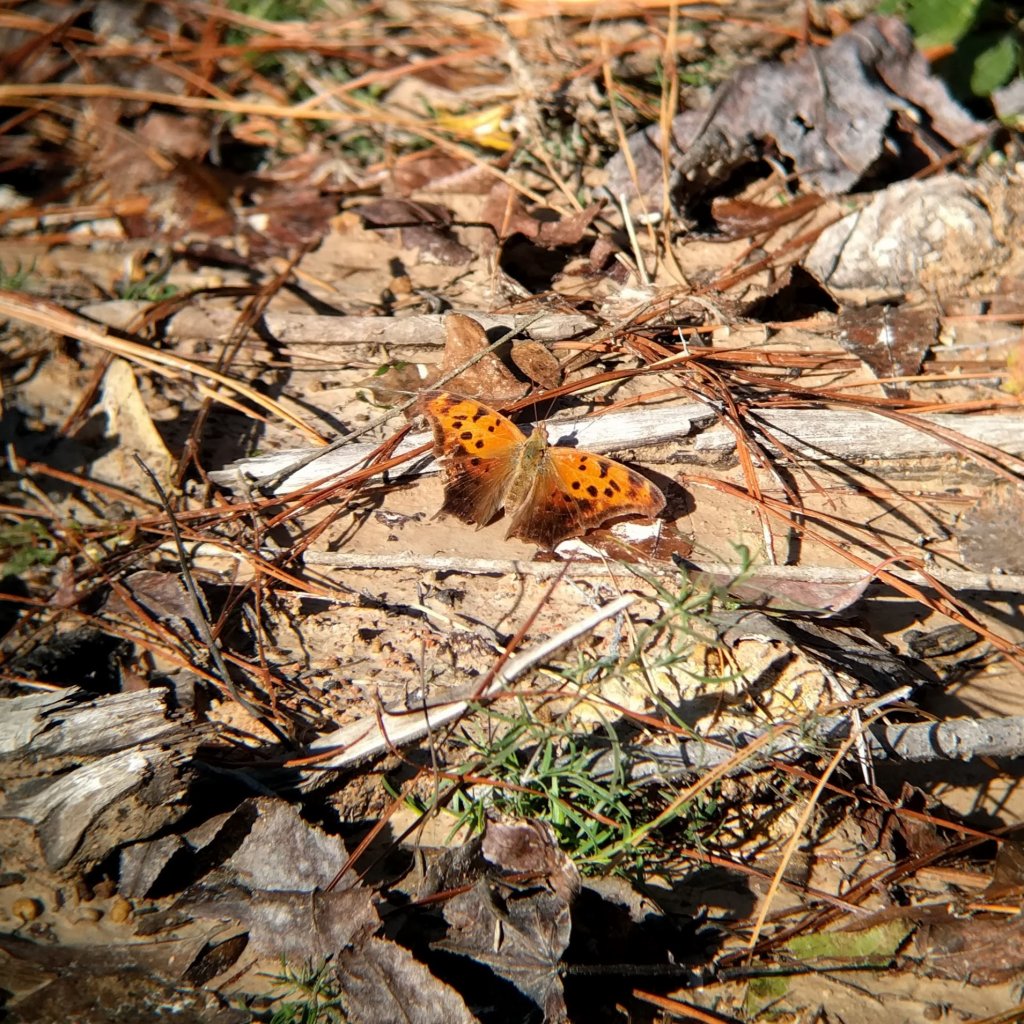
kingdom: Animalia
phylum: Arthropoda
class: Insecta
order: Lepidoptera
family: Nymphalidae
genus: Polygonia
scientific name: Polygonia interrogationis
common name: Question Mark
